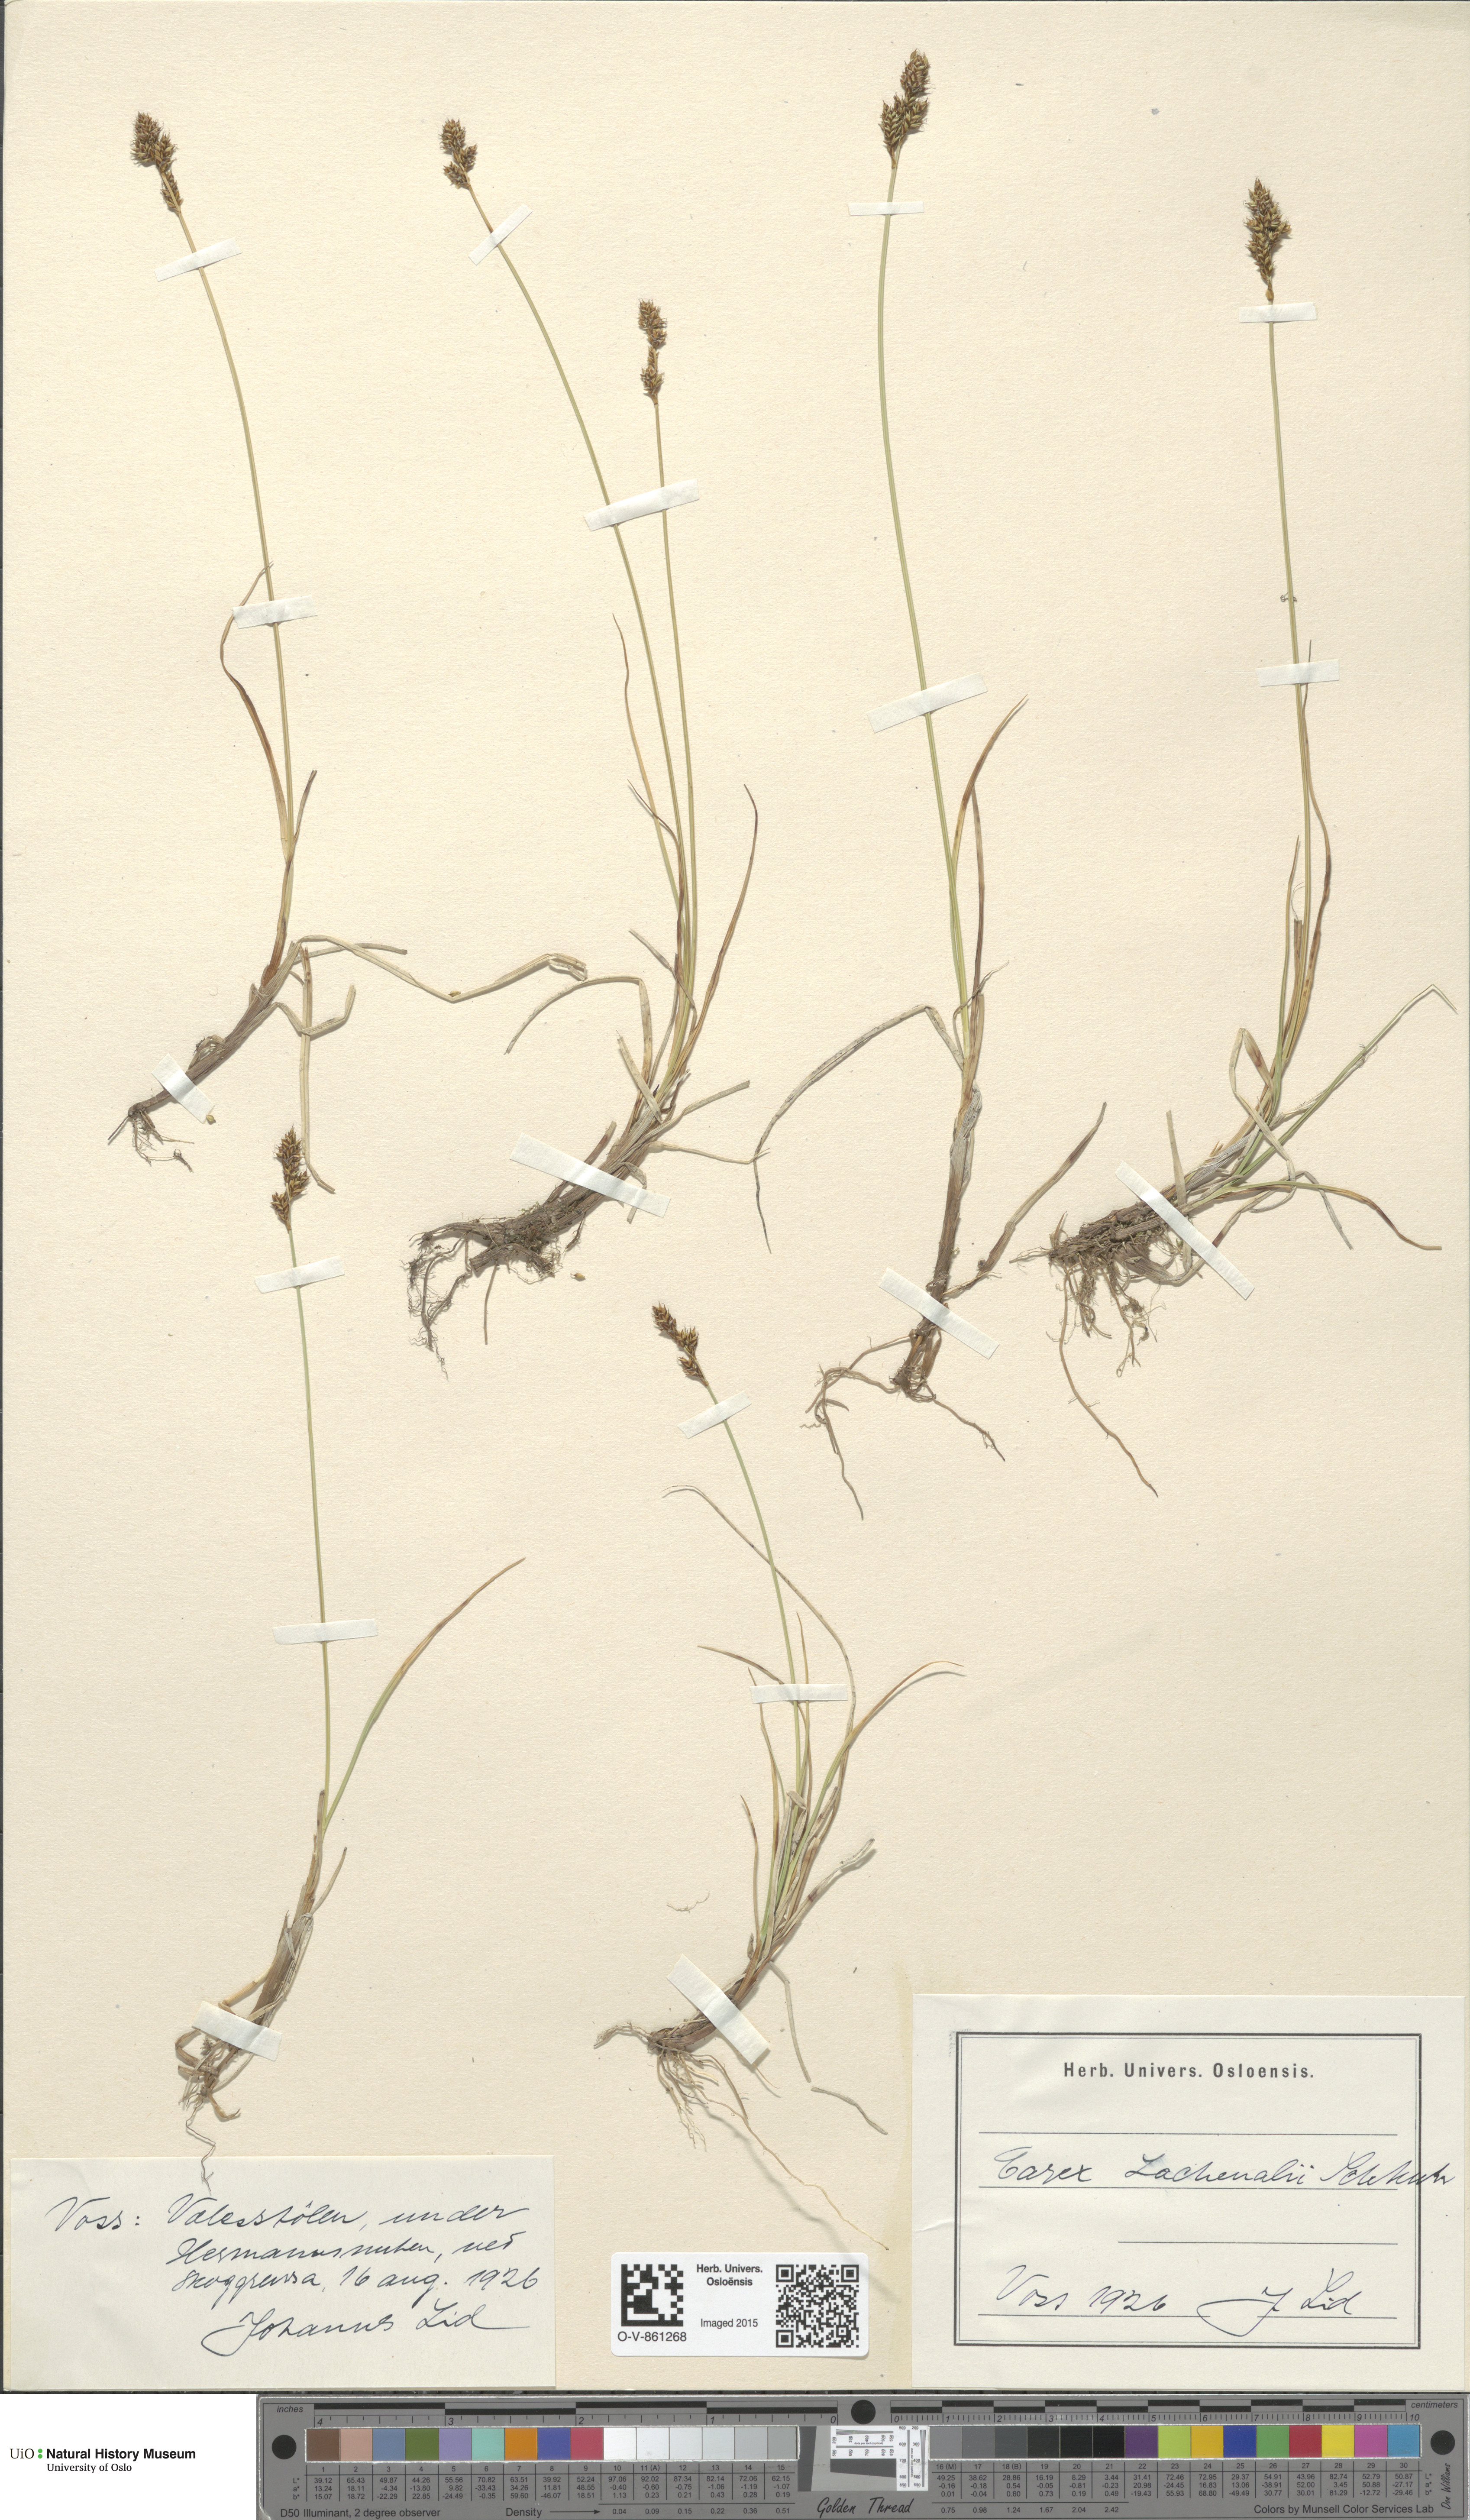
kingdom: Plantae
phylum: Tracheophyta
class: Liliopsida
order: Poales
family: Cyperaceae
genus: Carex
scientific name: Carex lachenalii
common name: Hare's-foot sedge
